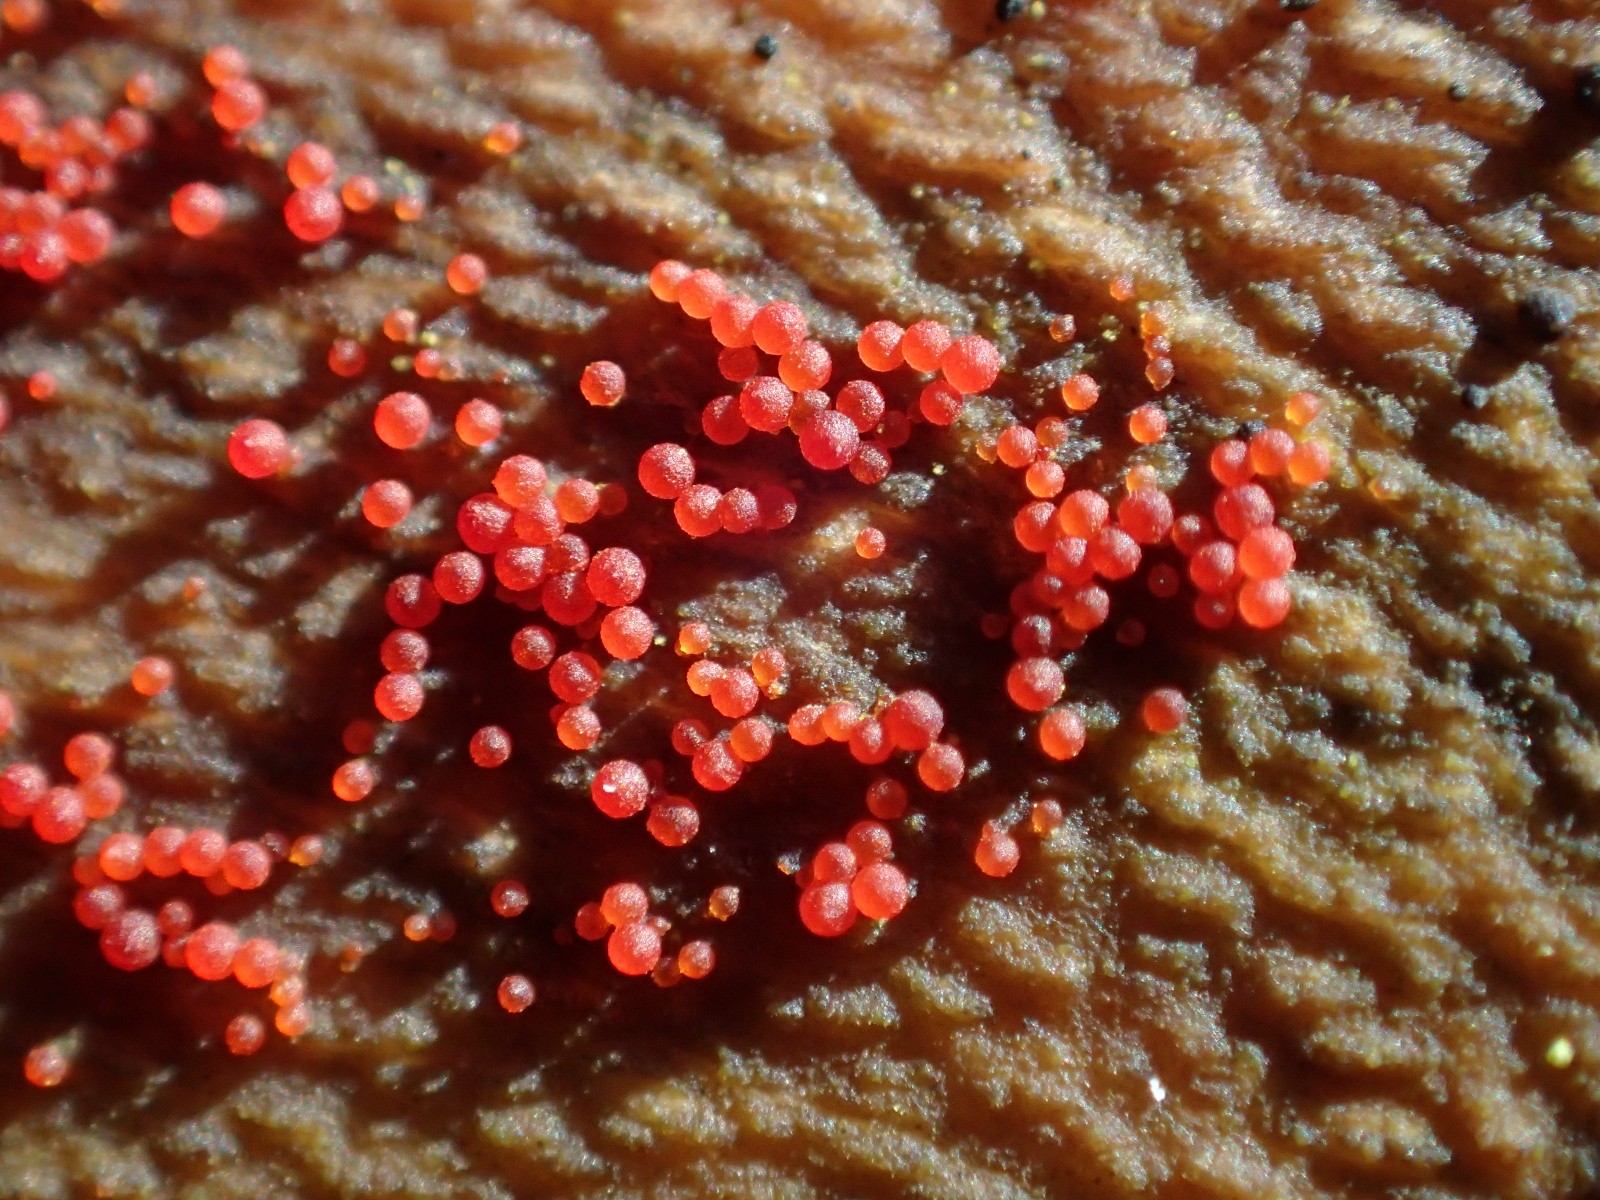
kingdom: Fungi
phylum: Ascomycota
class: Sordariomycetes
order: Hypocreales
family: Nectriaceae
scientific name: Nectriaceae
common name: cinnobersvampfamilien
